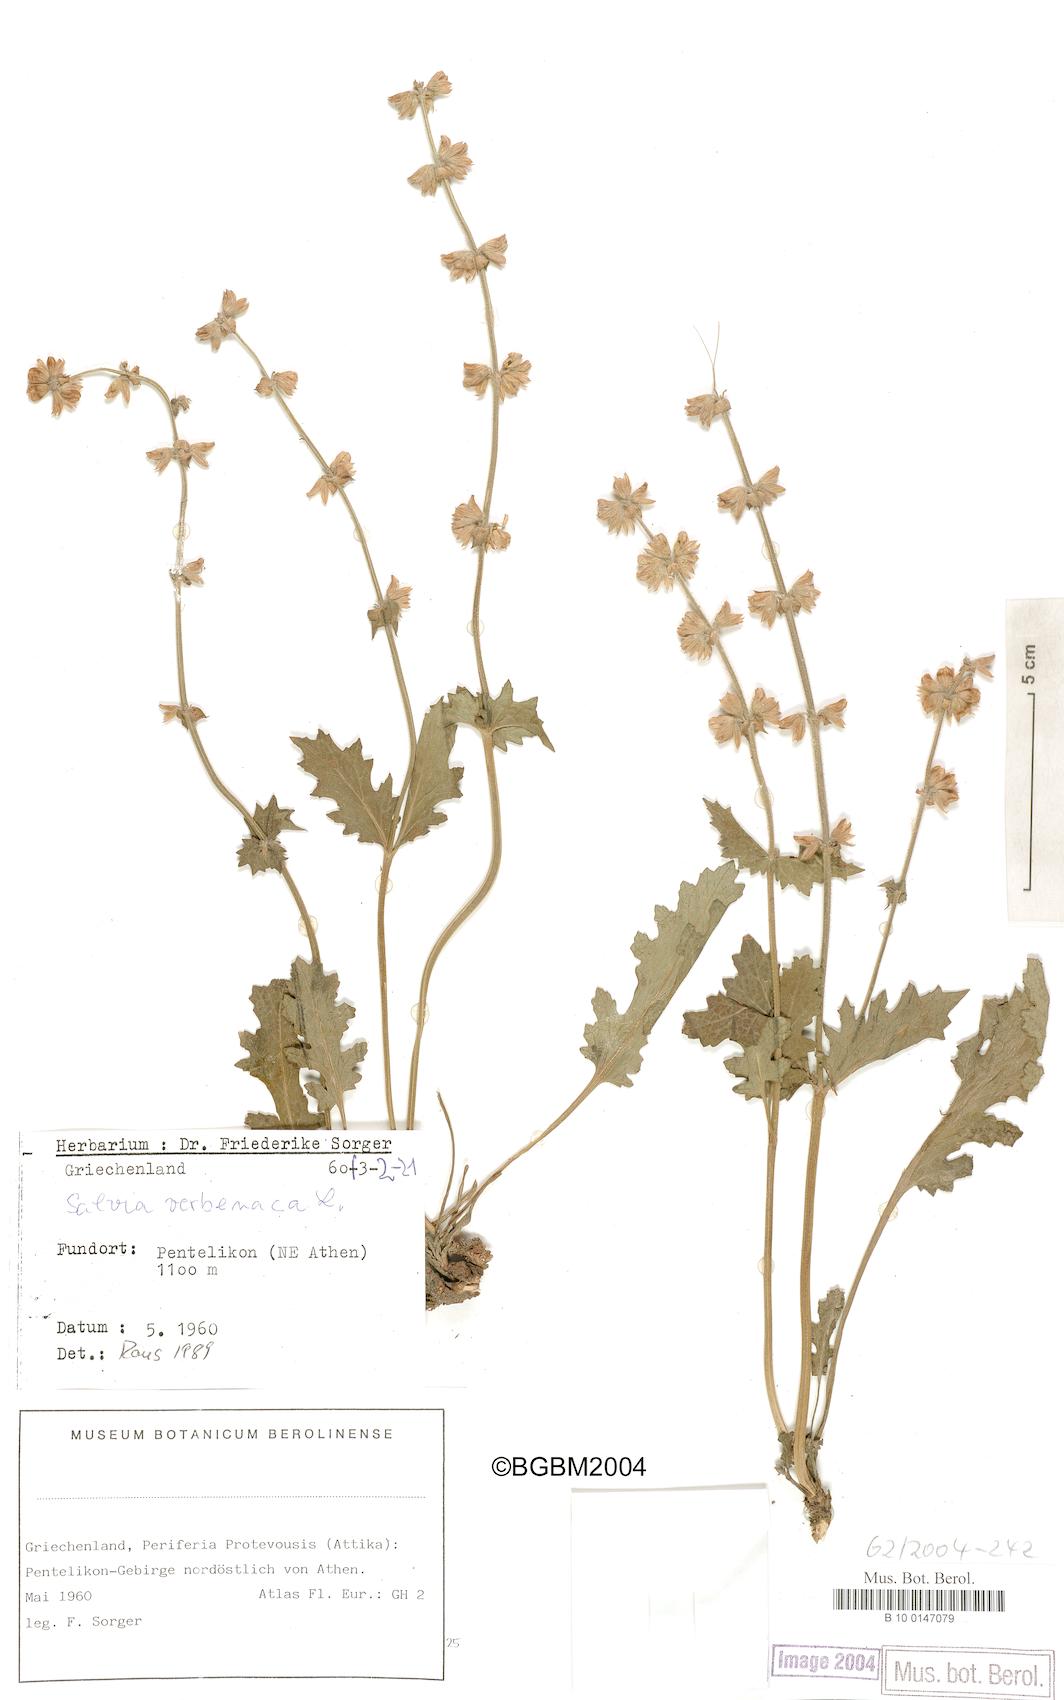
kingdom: Plantae
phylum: Tracheophyta
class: Magnoliopsida
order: Lamiales
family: Lamiaceae
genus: Salvia
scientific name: Salvia verbenaca
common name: Wild clary
